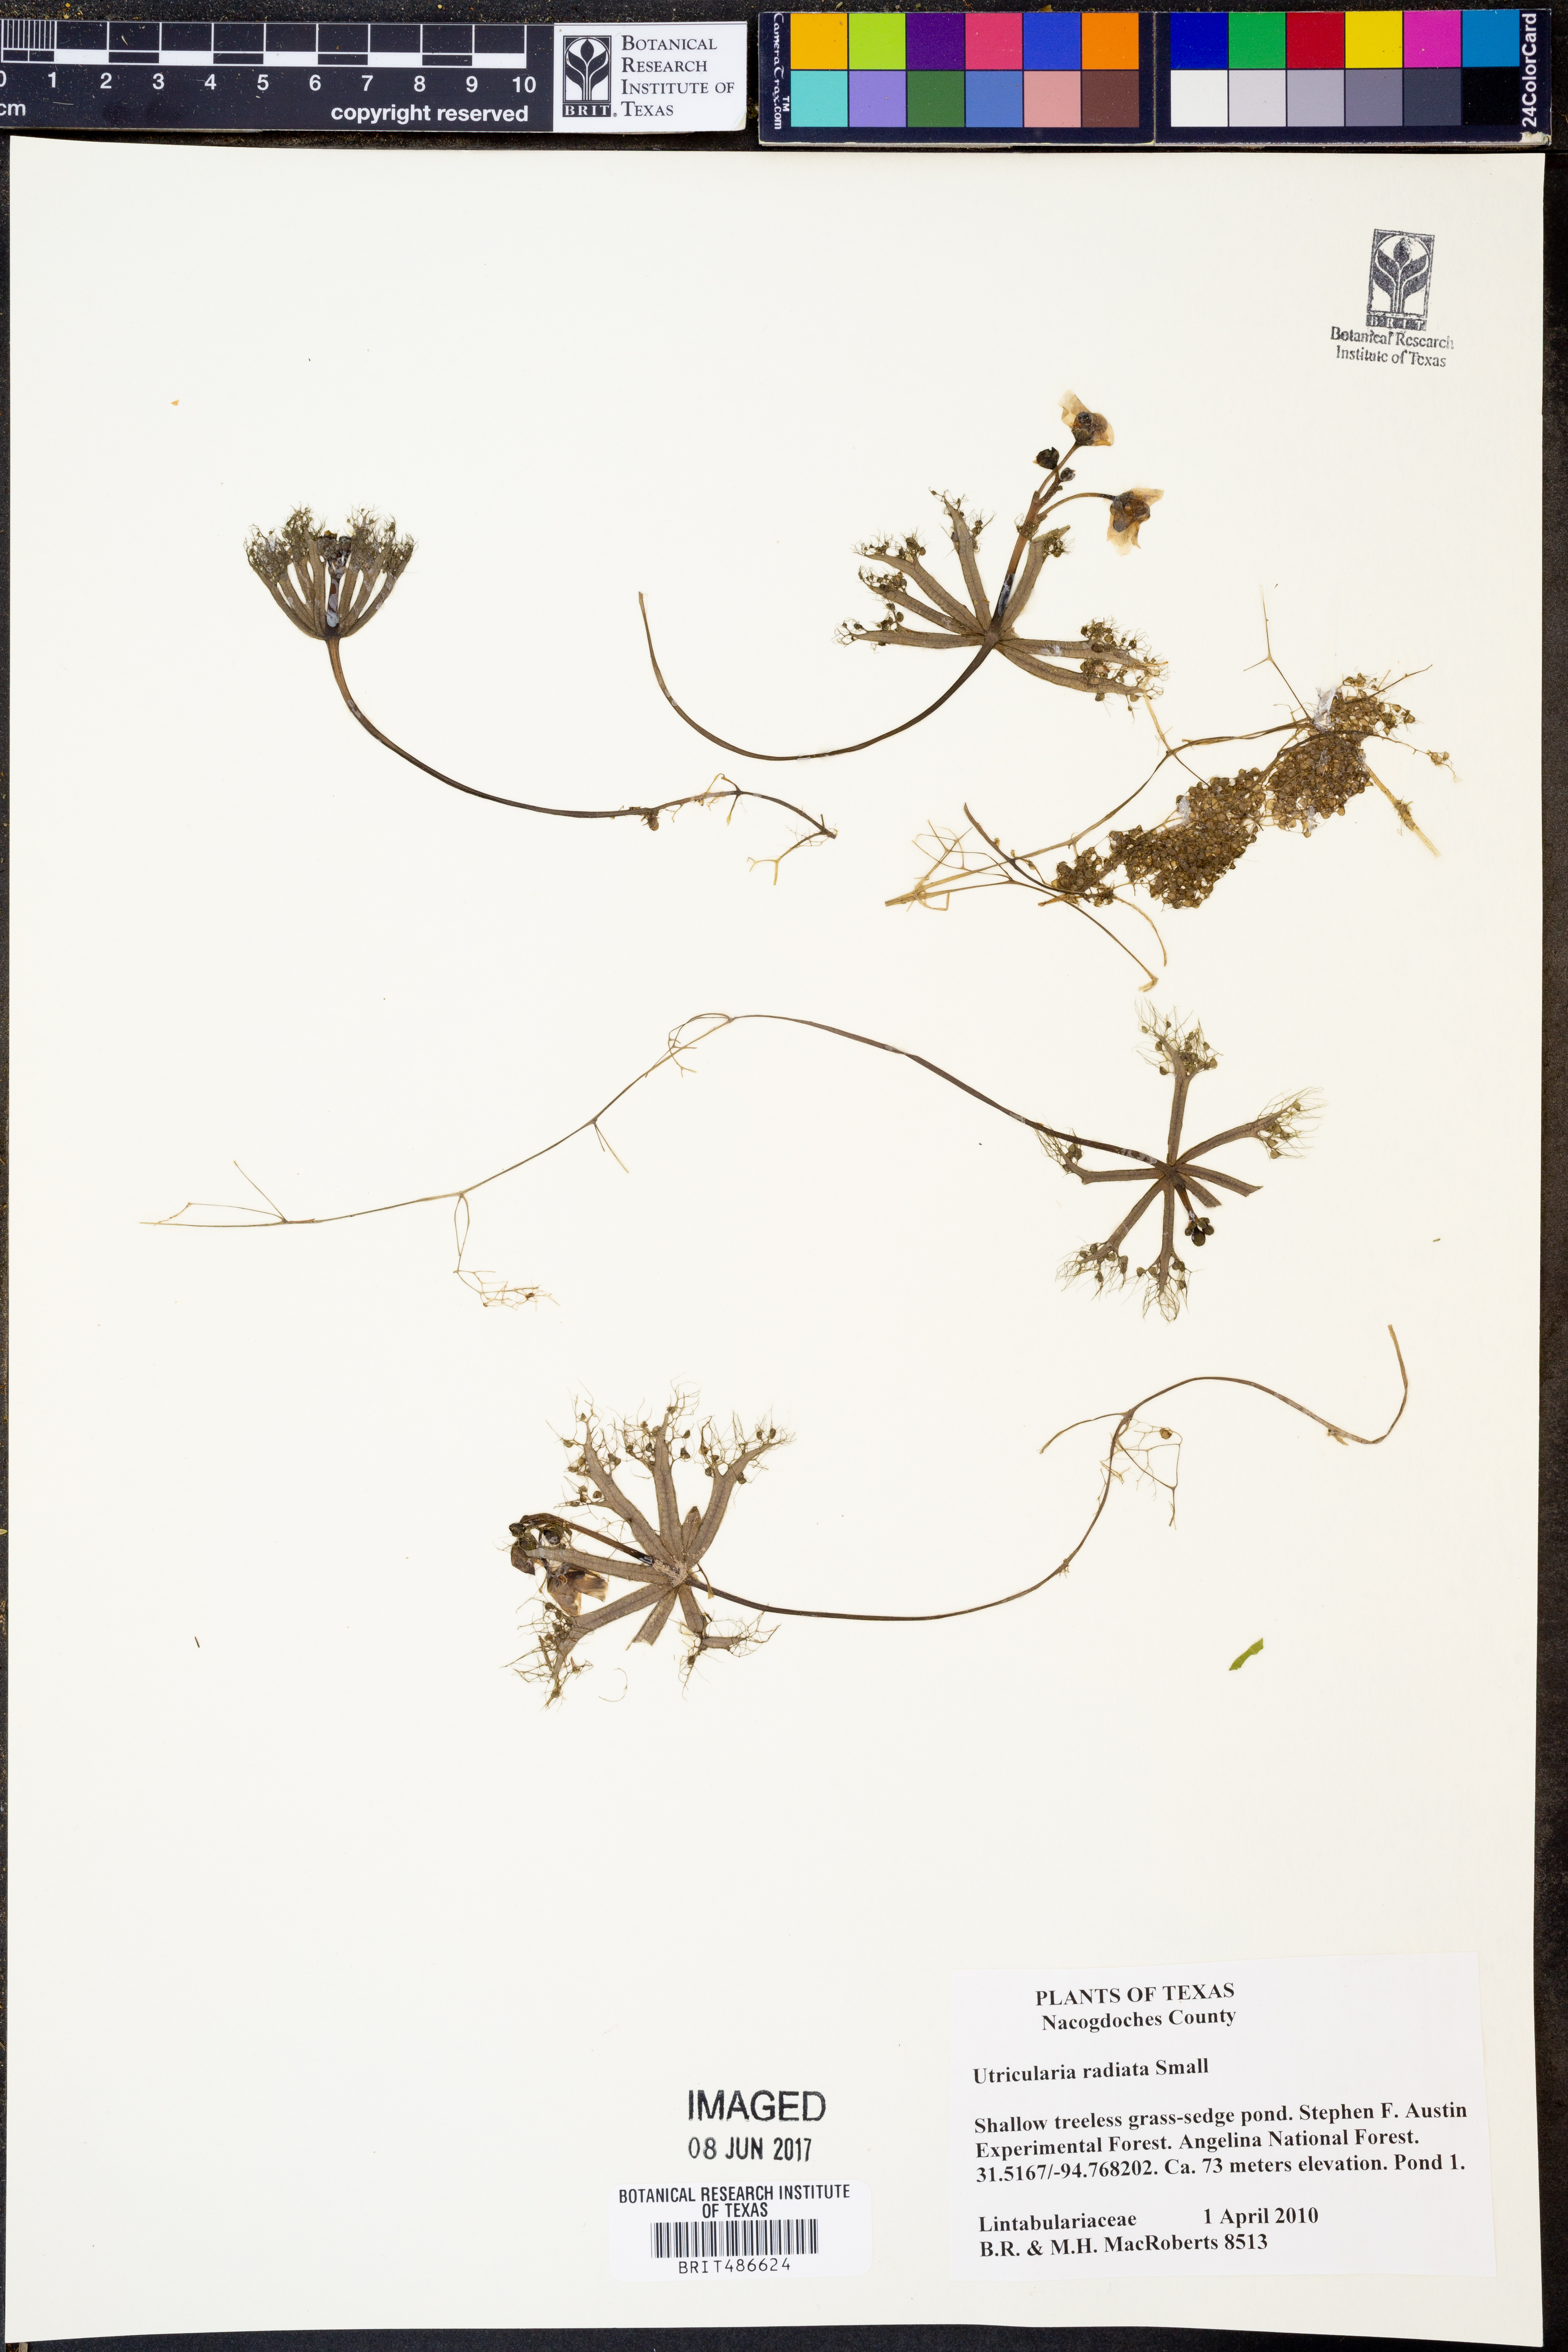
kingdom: Plantae
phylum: Tracheophyta
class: Magnoliopsida
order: Lamiales
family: Lentibulariaceae
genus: Utricularia
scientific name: Utricularia radiata
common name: Floating bladderwort
